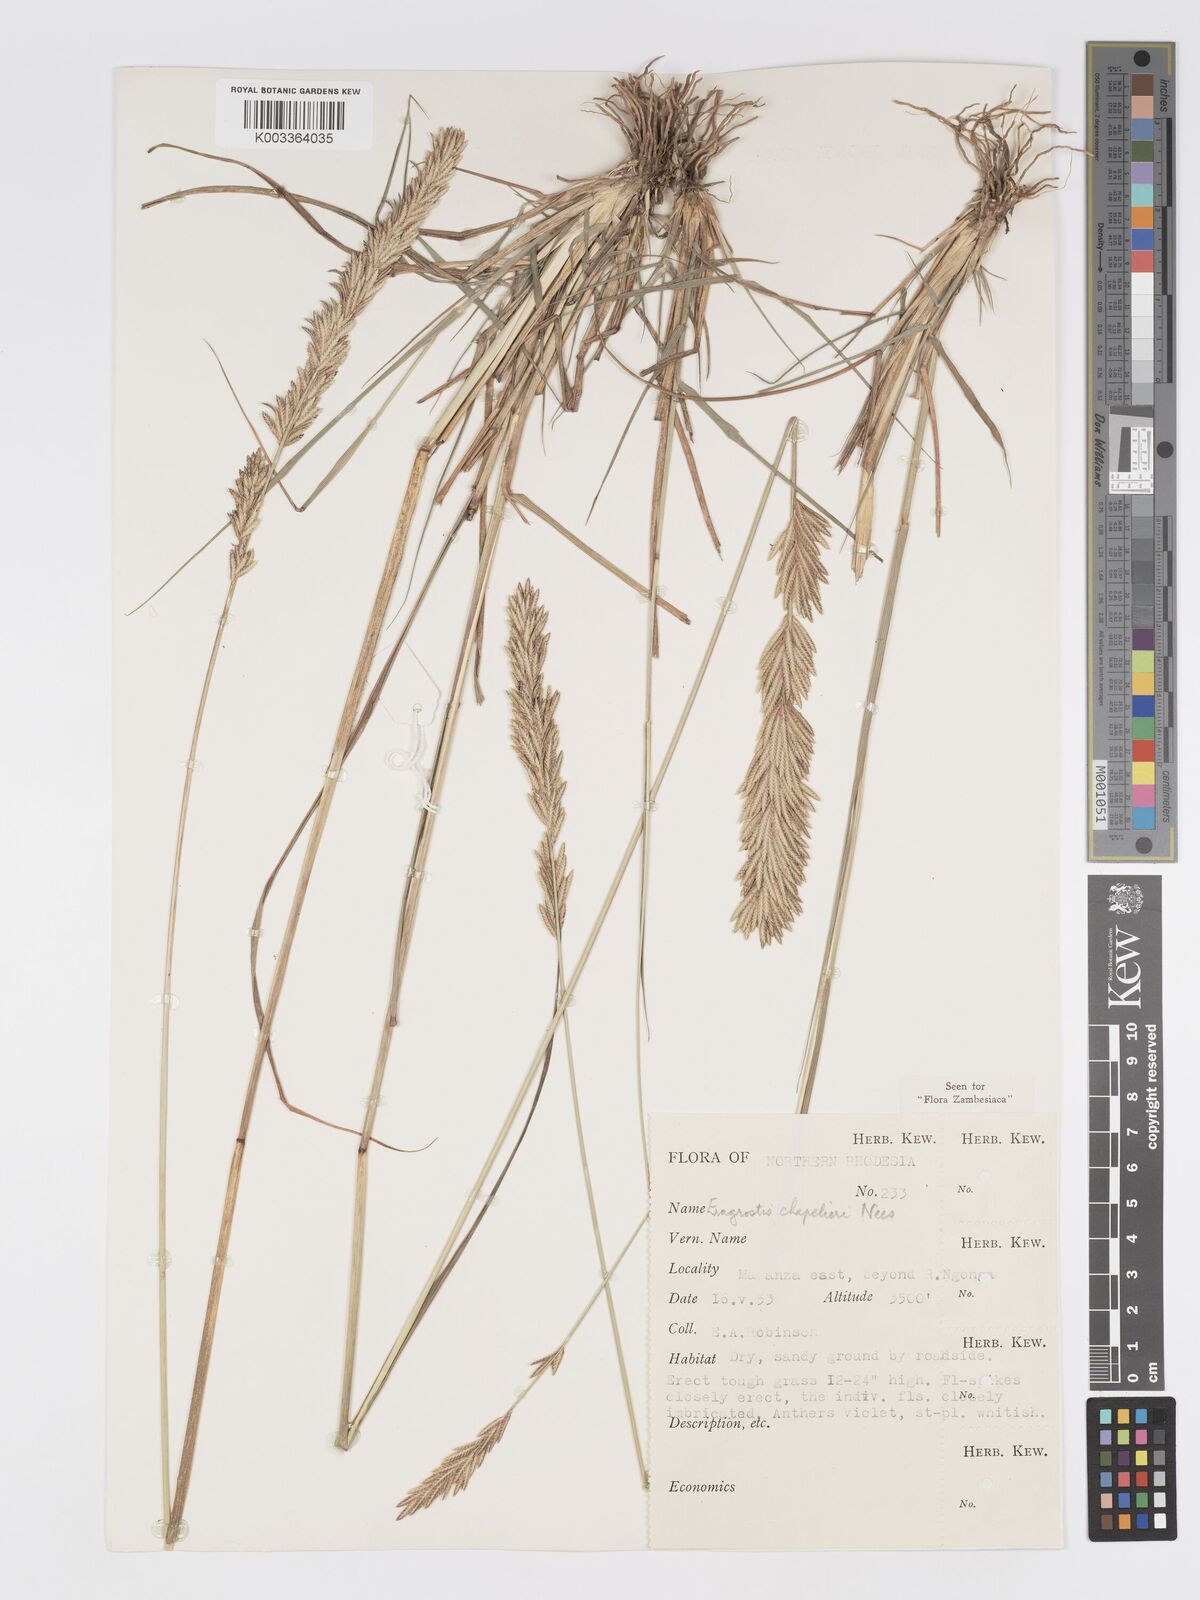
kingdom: Plantae
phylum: Tracheophyta
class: Liliopsida
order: Poales
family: Poaceae
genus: Eragrostis
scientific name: Eragrostis chapelieri
